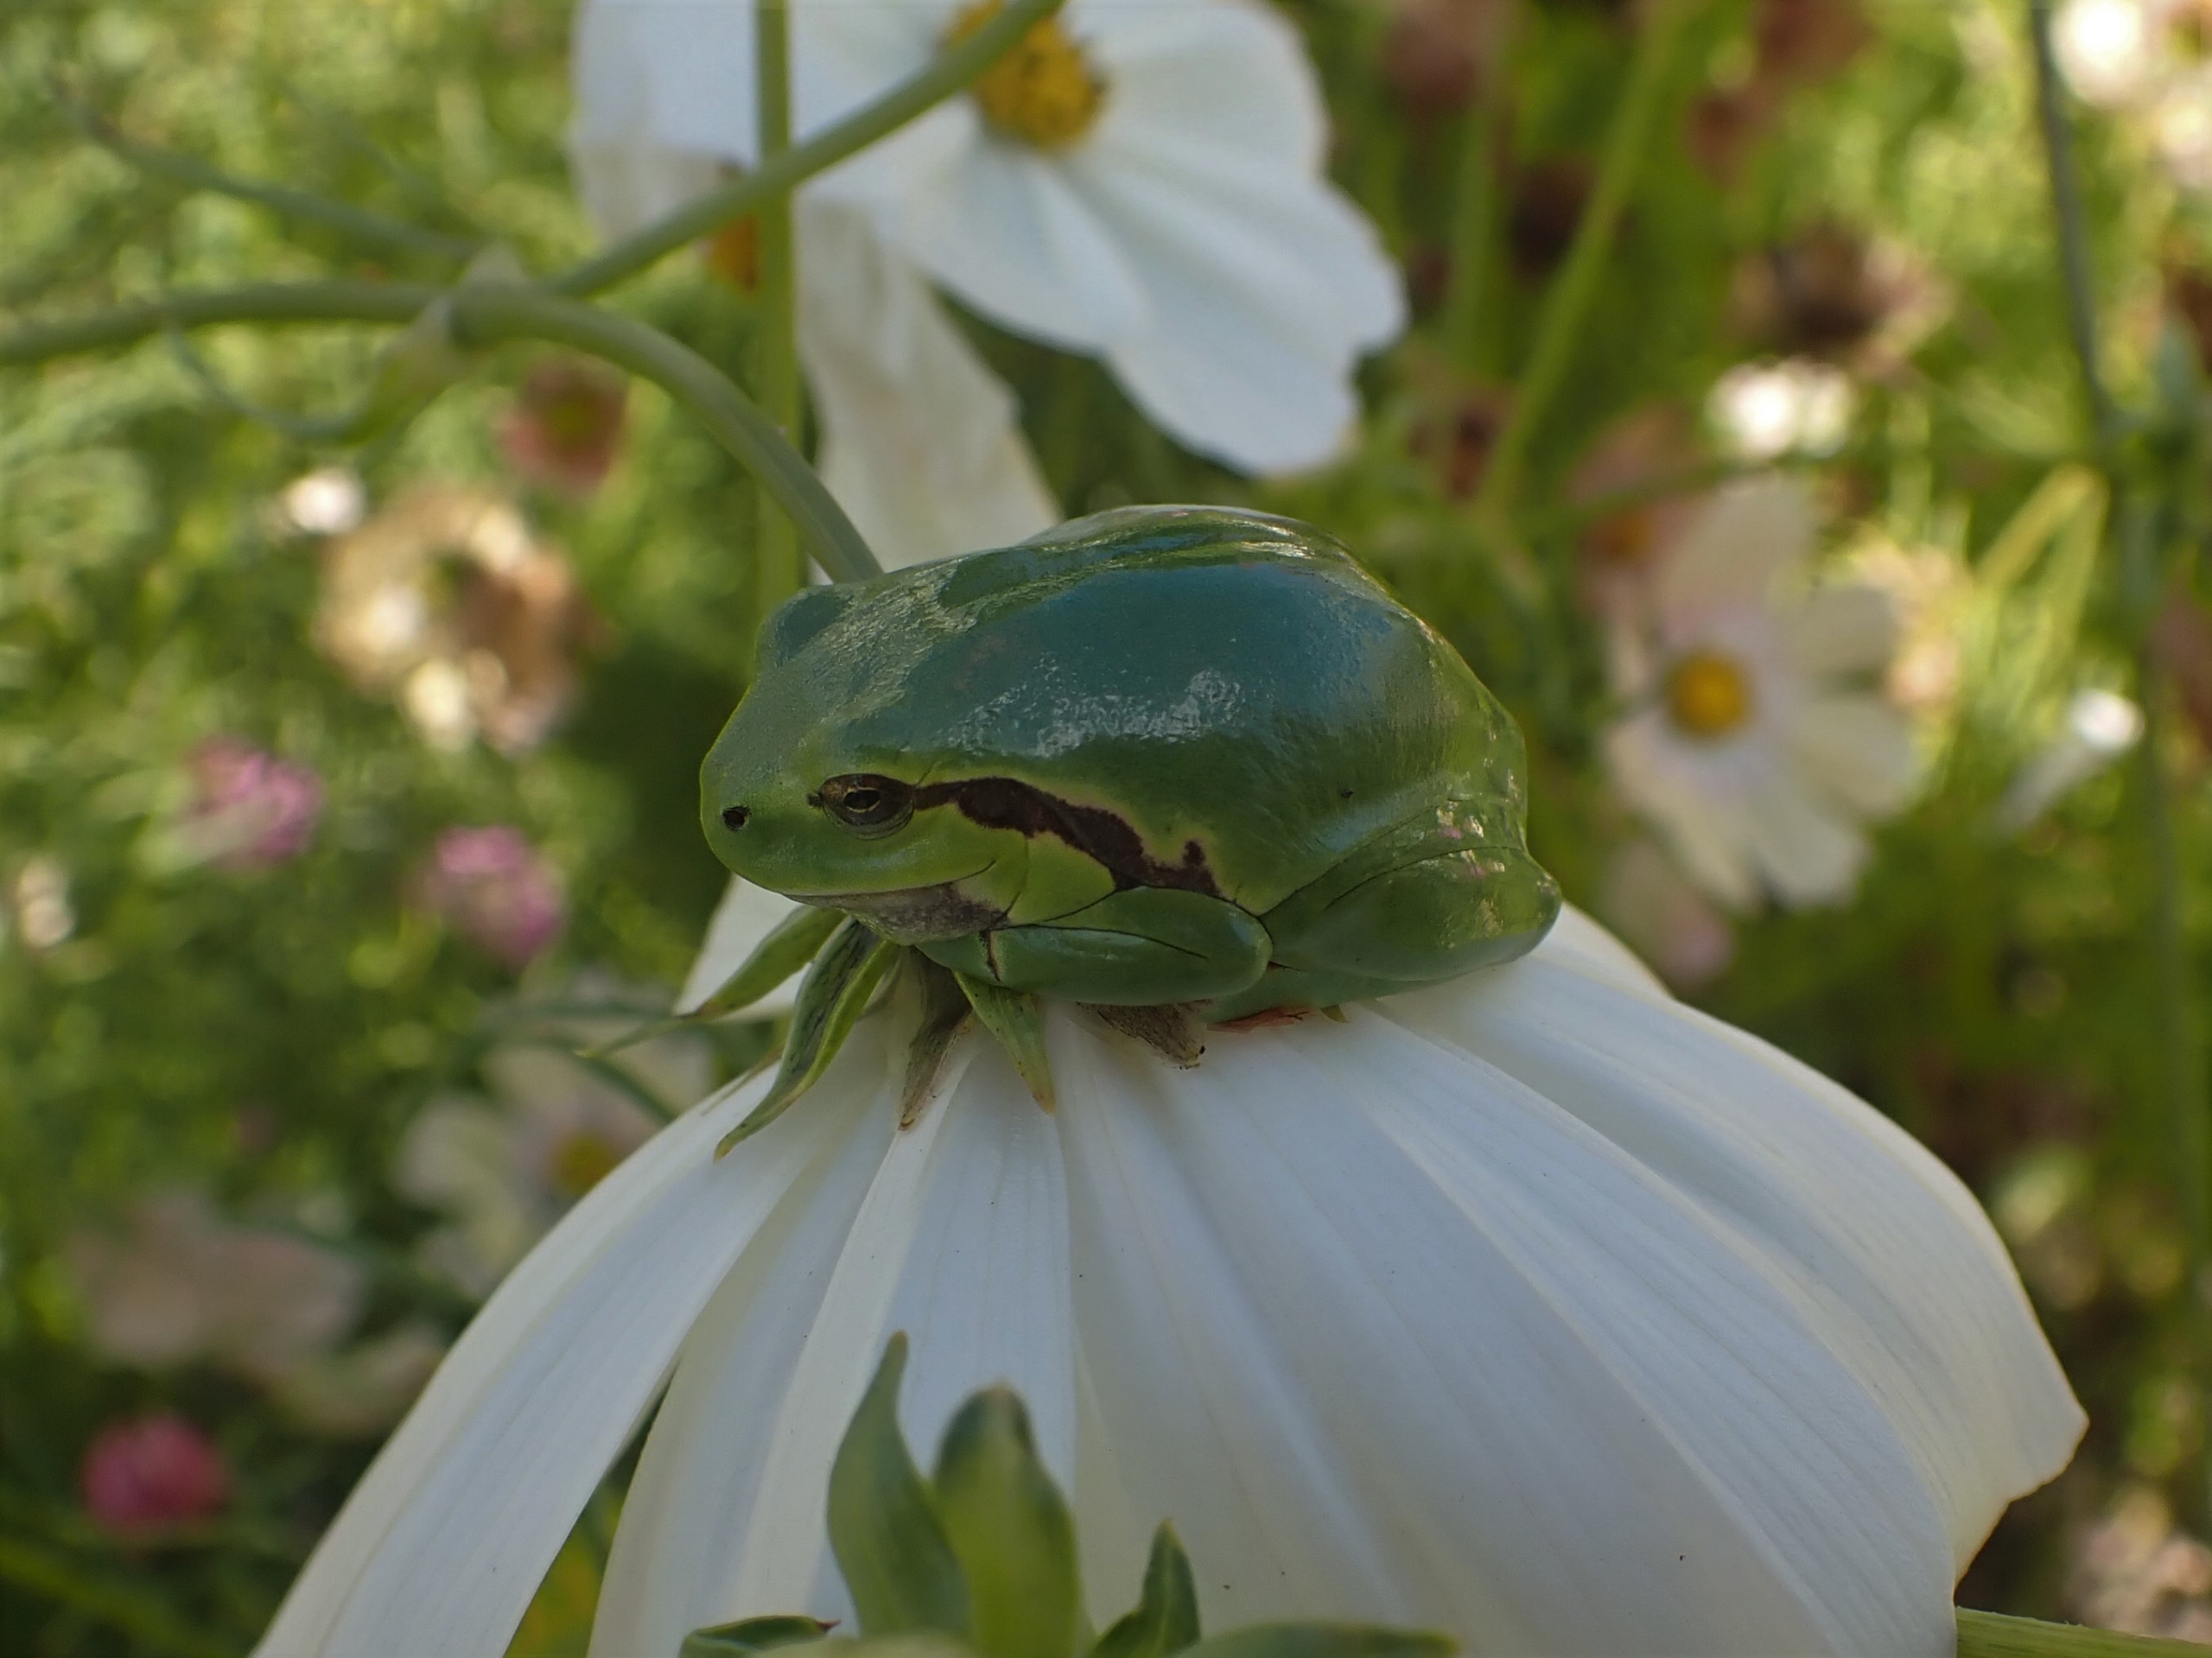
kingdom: Animalia
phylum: Chordata
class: Amphibia
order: Anura
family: Hylidae
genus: Hyla
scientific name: Hyla arborea
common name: Løvfrø
